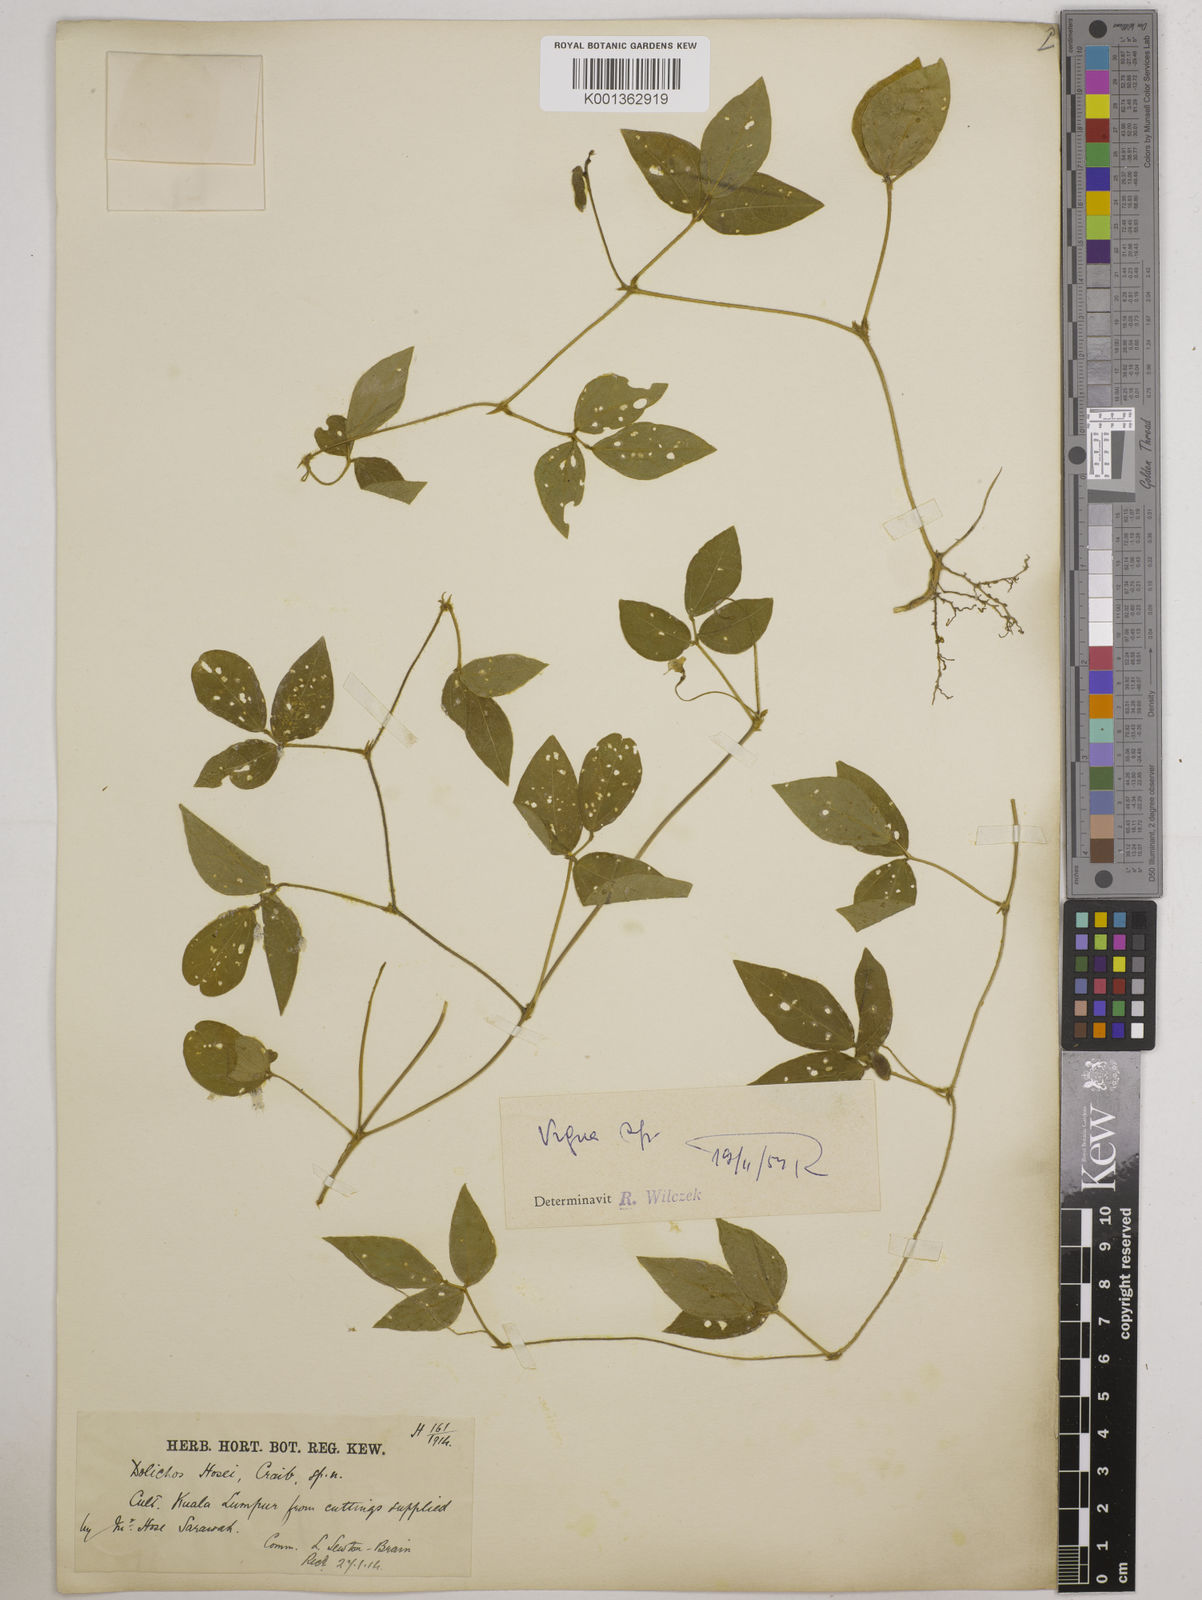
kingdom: Plantae
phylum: Tracheophyta
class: Magnoliopsida
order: Fabales
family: Fabaceae
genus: Vigna
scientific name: Vigna hosei
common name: Sarawak-bean
